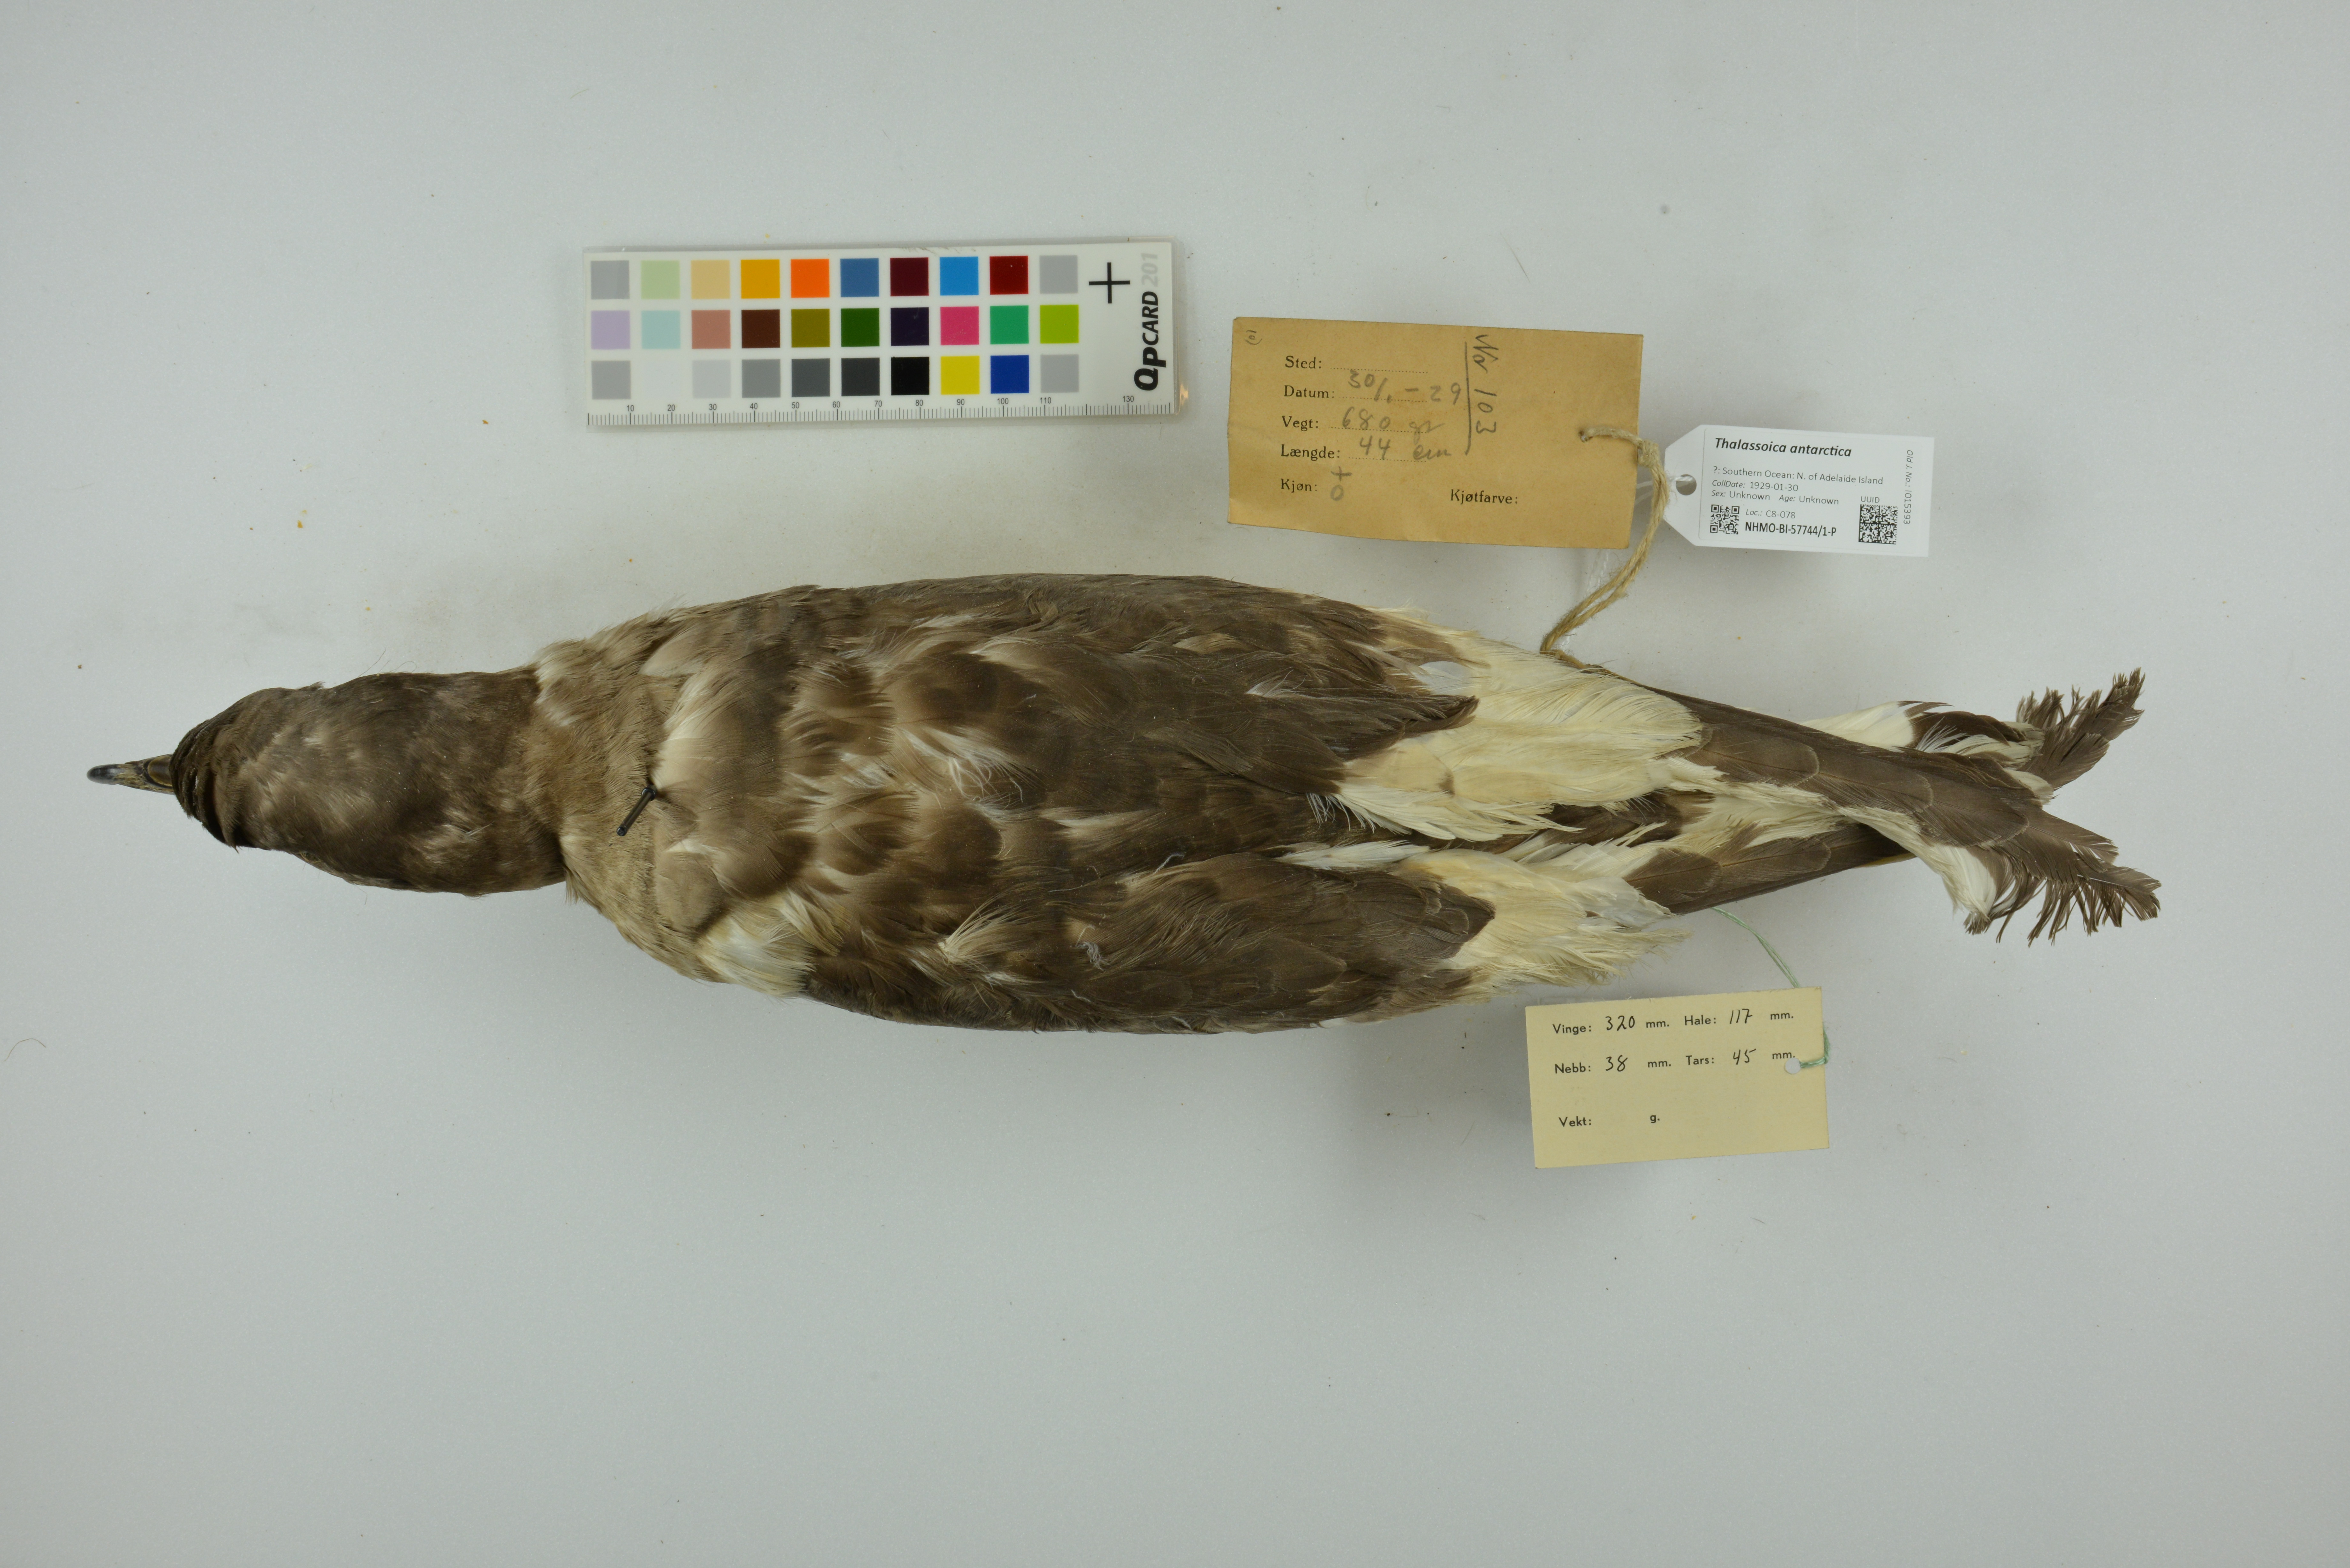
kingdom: Animalia
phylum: Chordata
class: Aves
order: Procellariiformes
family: Procellariidae
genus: Thalassoica
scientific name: Thalassoica antarctica
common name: Antarctic petrel
